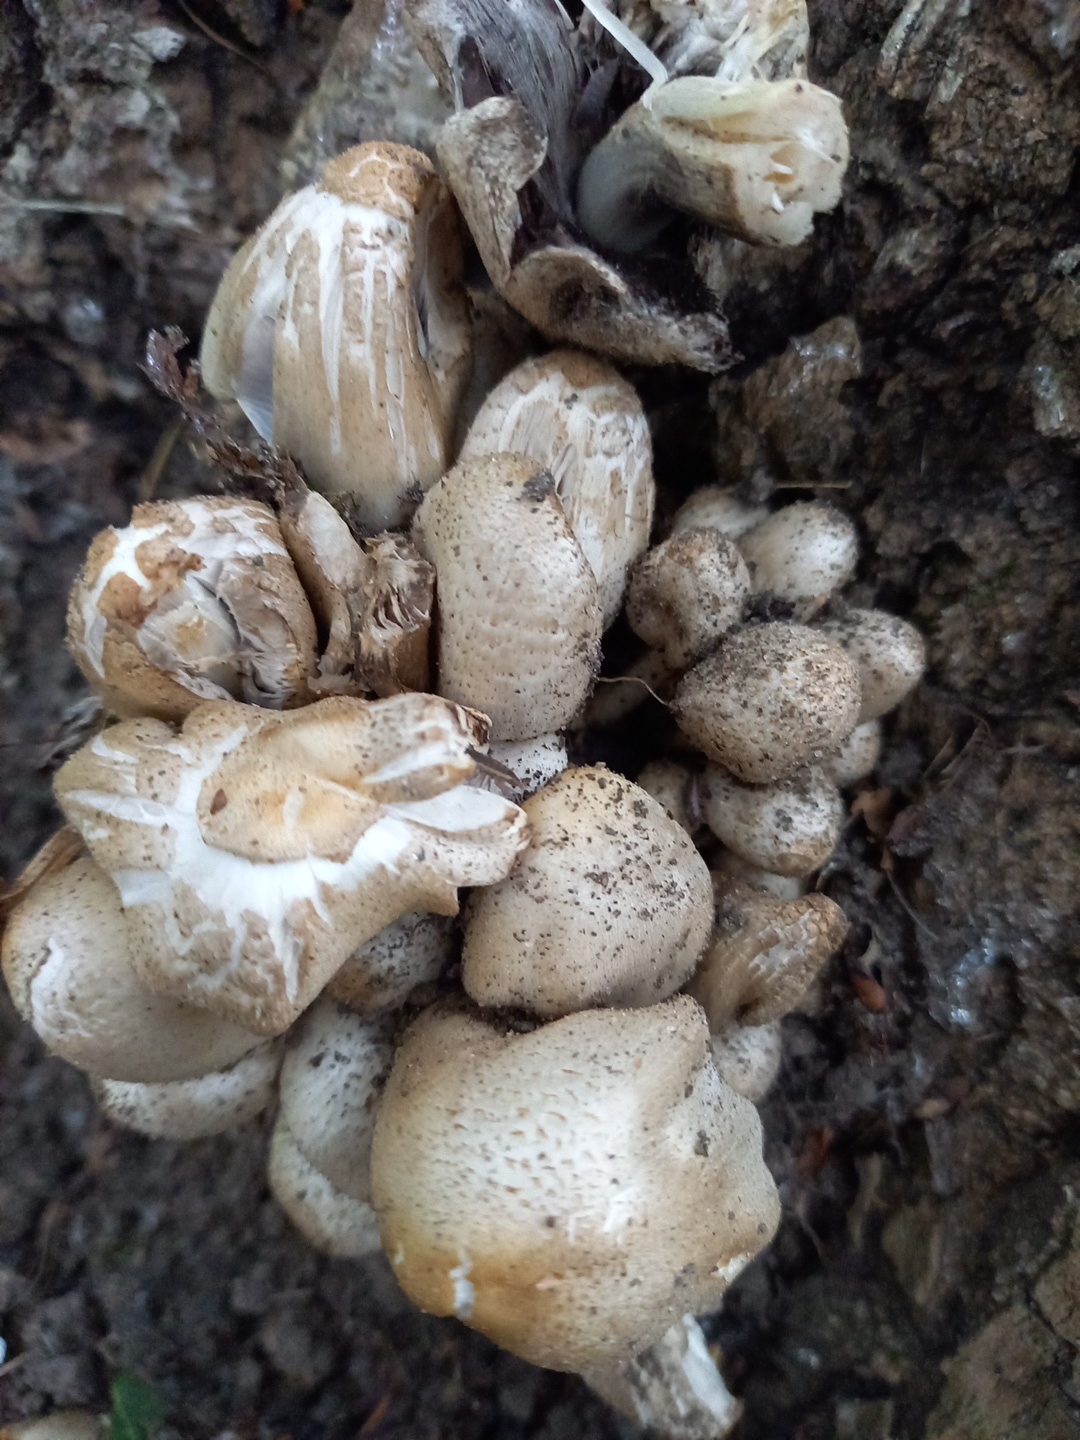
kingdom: Fungi
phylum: Basidiomycota
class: Agaricomycetes
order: Agaricales
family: Psathyrellaceae
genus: Coprinopsis
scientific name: Coprinopsis romagnesiana
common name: brunskællet blækhat
